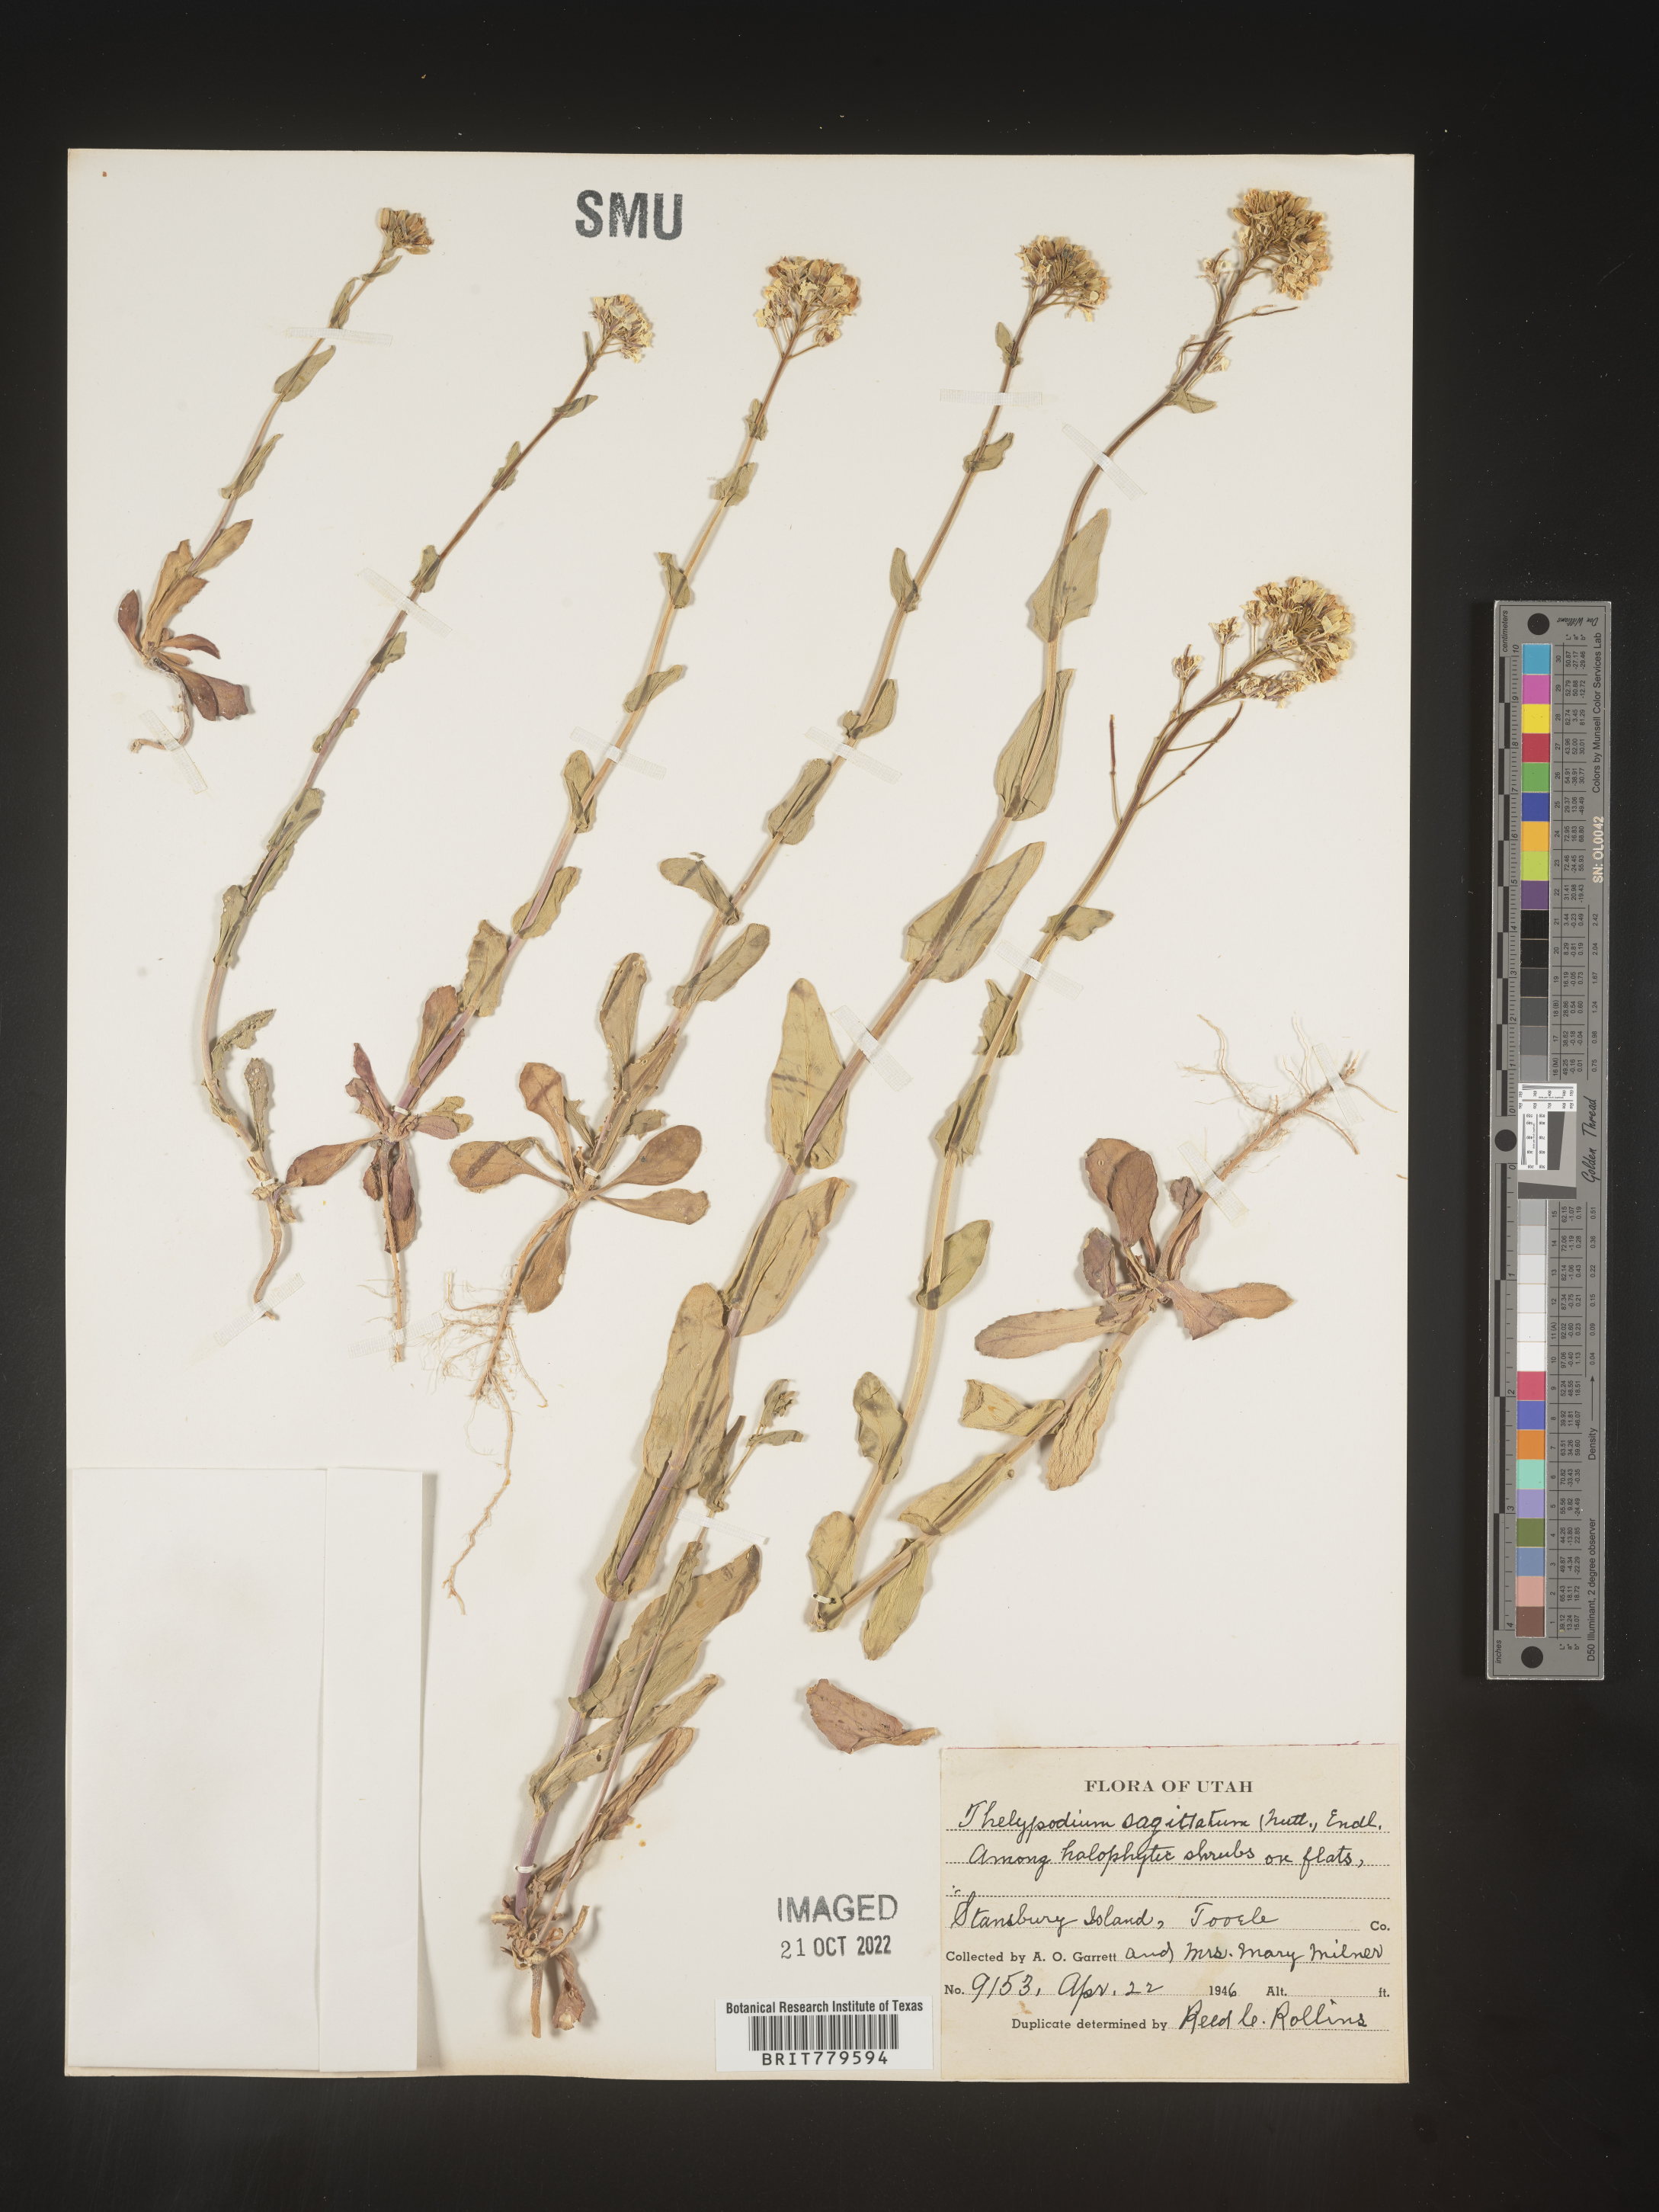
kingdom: Plantae
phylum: Tracheophyta
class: Magnoliopsida
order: Brassicales
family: Brassicaceae
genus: Thelypodium
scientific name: Thelypodium
